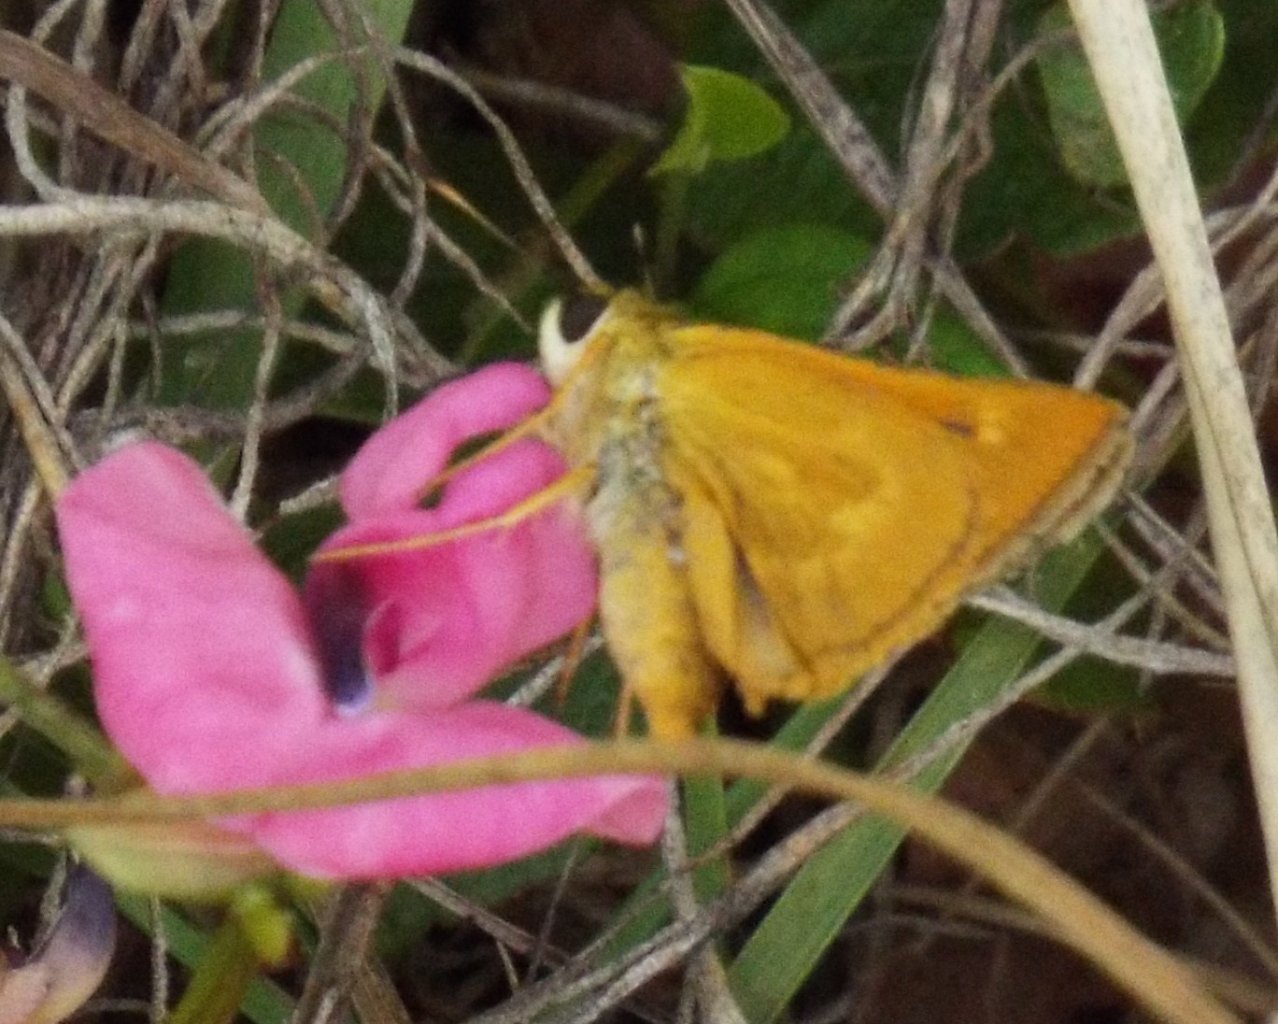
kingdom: Animalia
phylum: Arthropoda
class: Insecta
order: Lepidoptera
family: Hesperiidae
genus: Wallengrenia
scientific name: Wallengrenia otho
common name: Southern Broken-Dash
